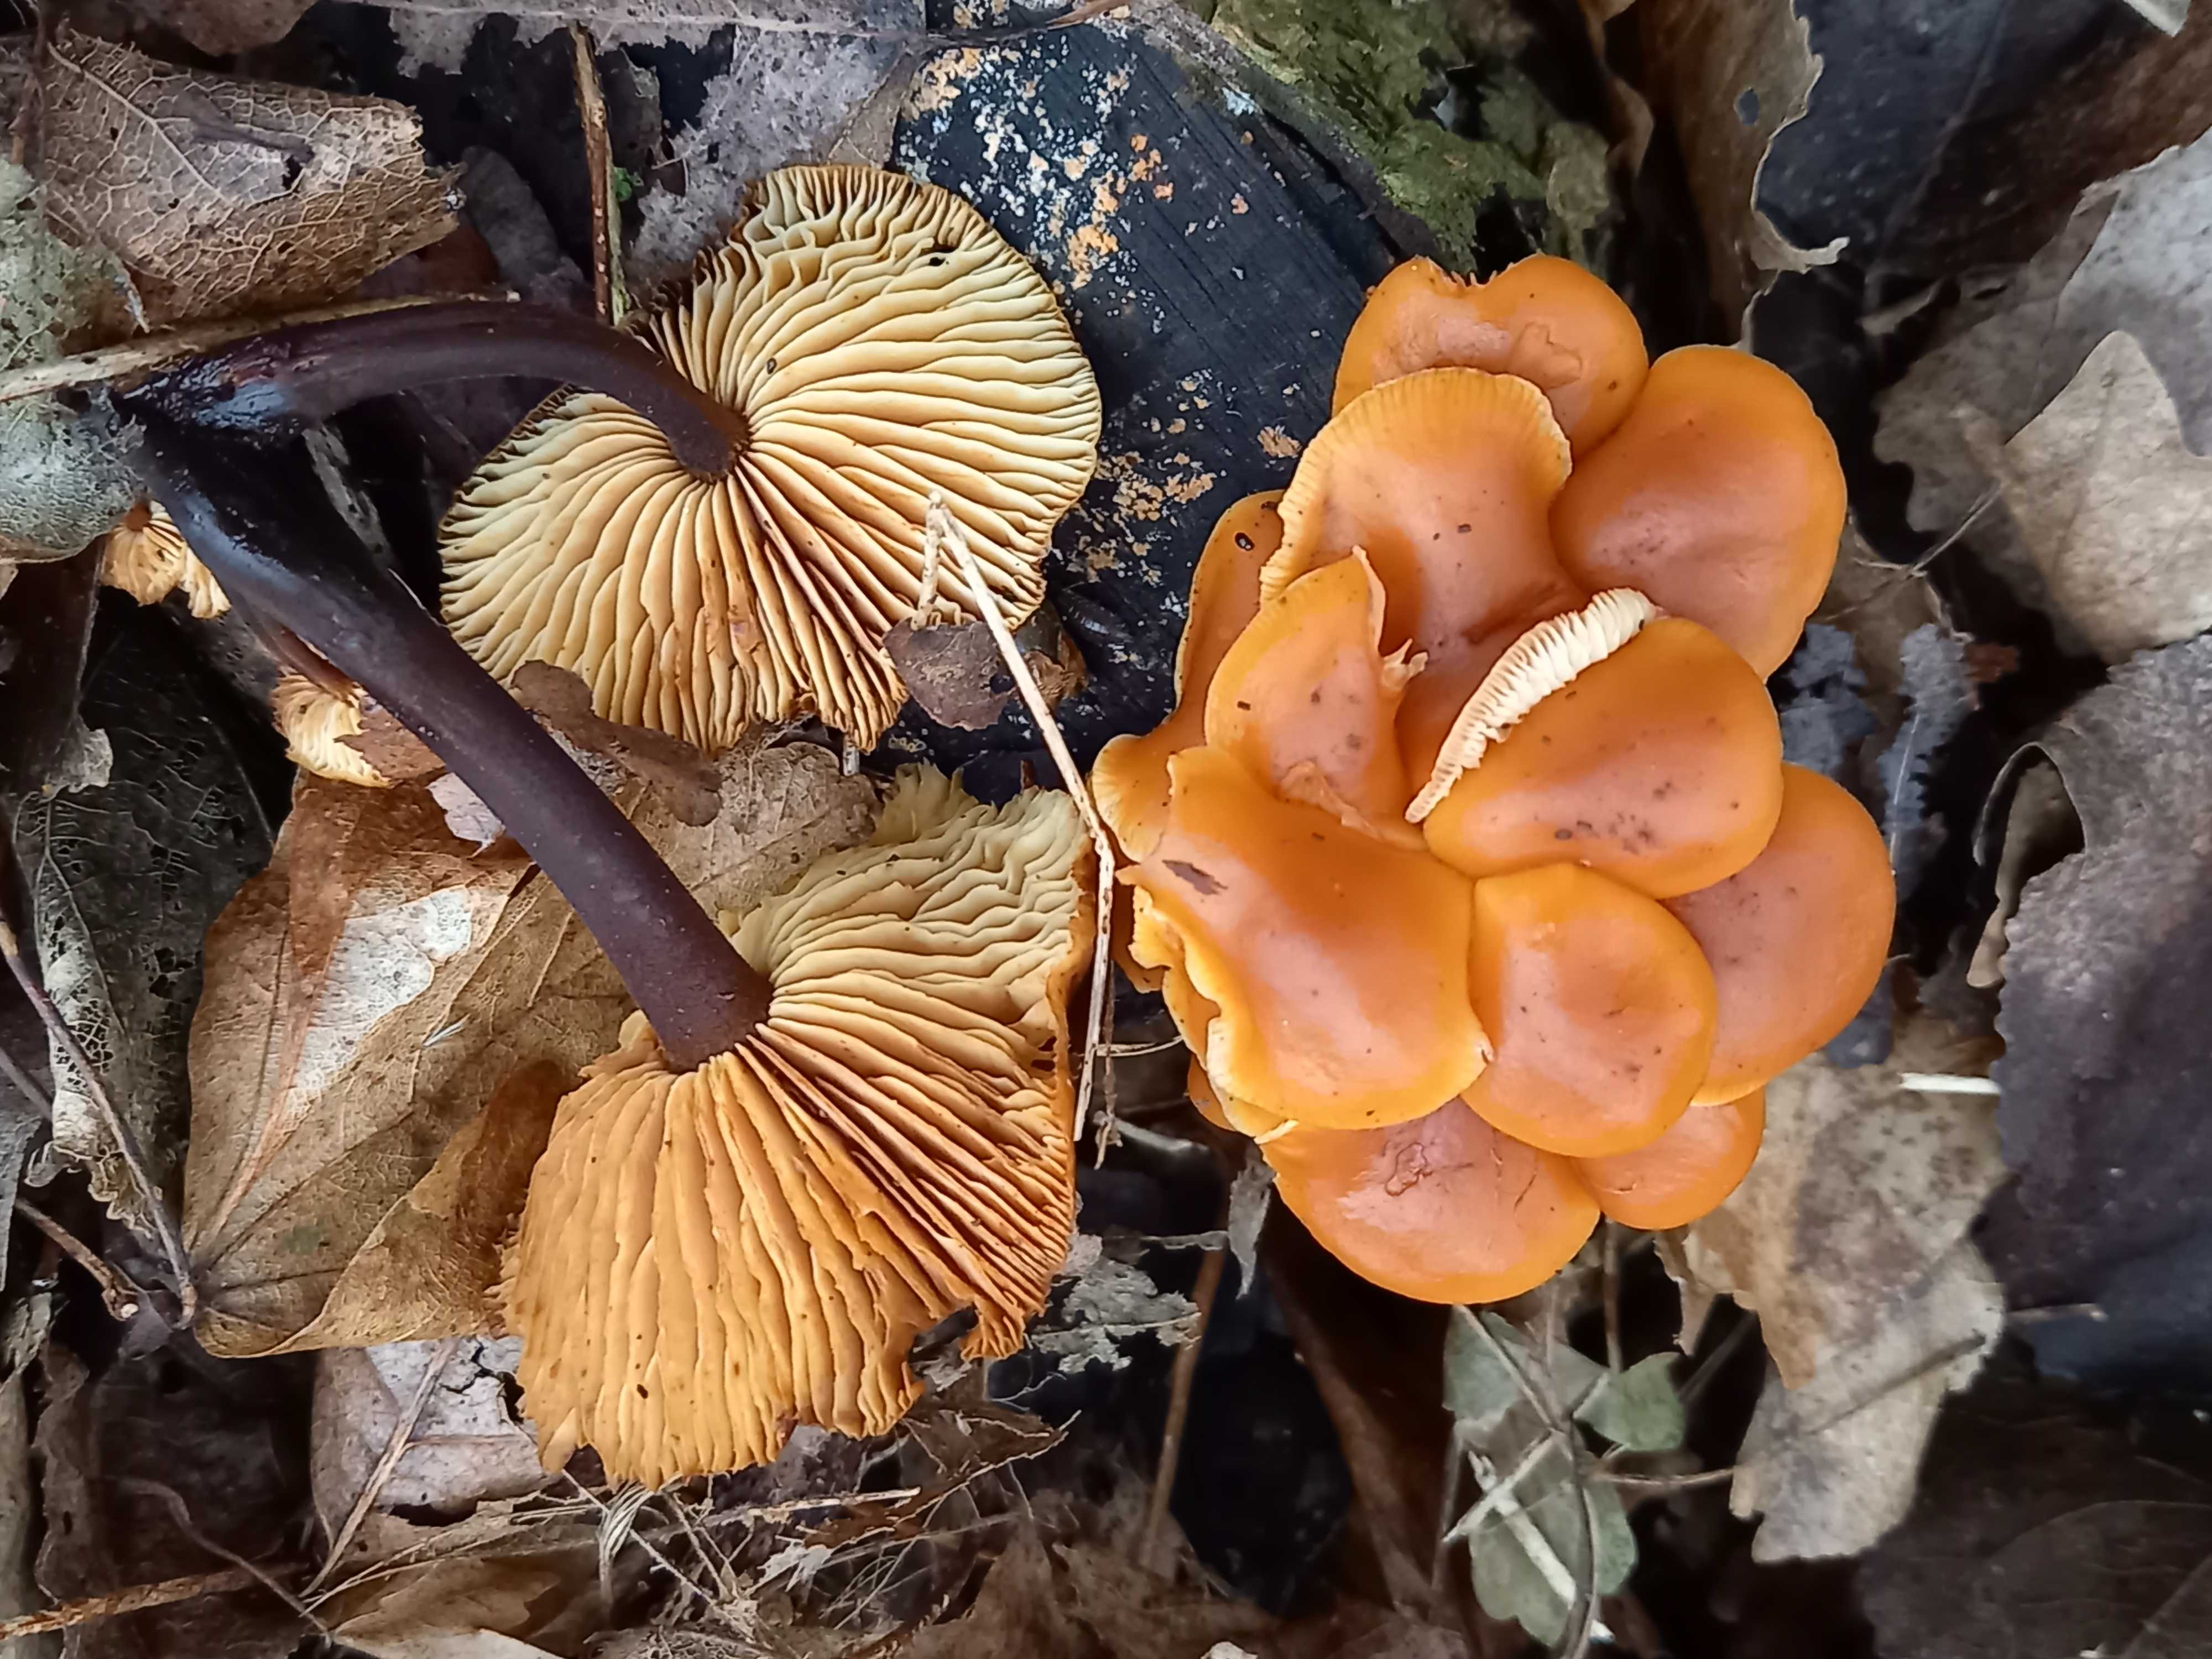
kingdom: Fungi
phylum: Basidiomycota
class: Agaricomycetes
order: Agaricales
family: Physalacriaceae
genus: Flammulina
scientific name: Flammulina velutipes
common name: gul fløjlsfod
